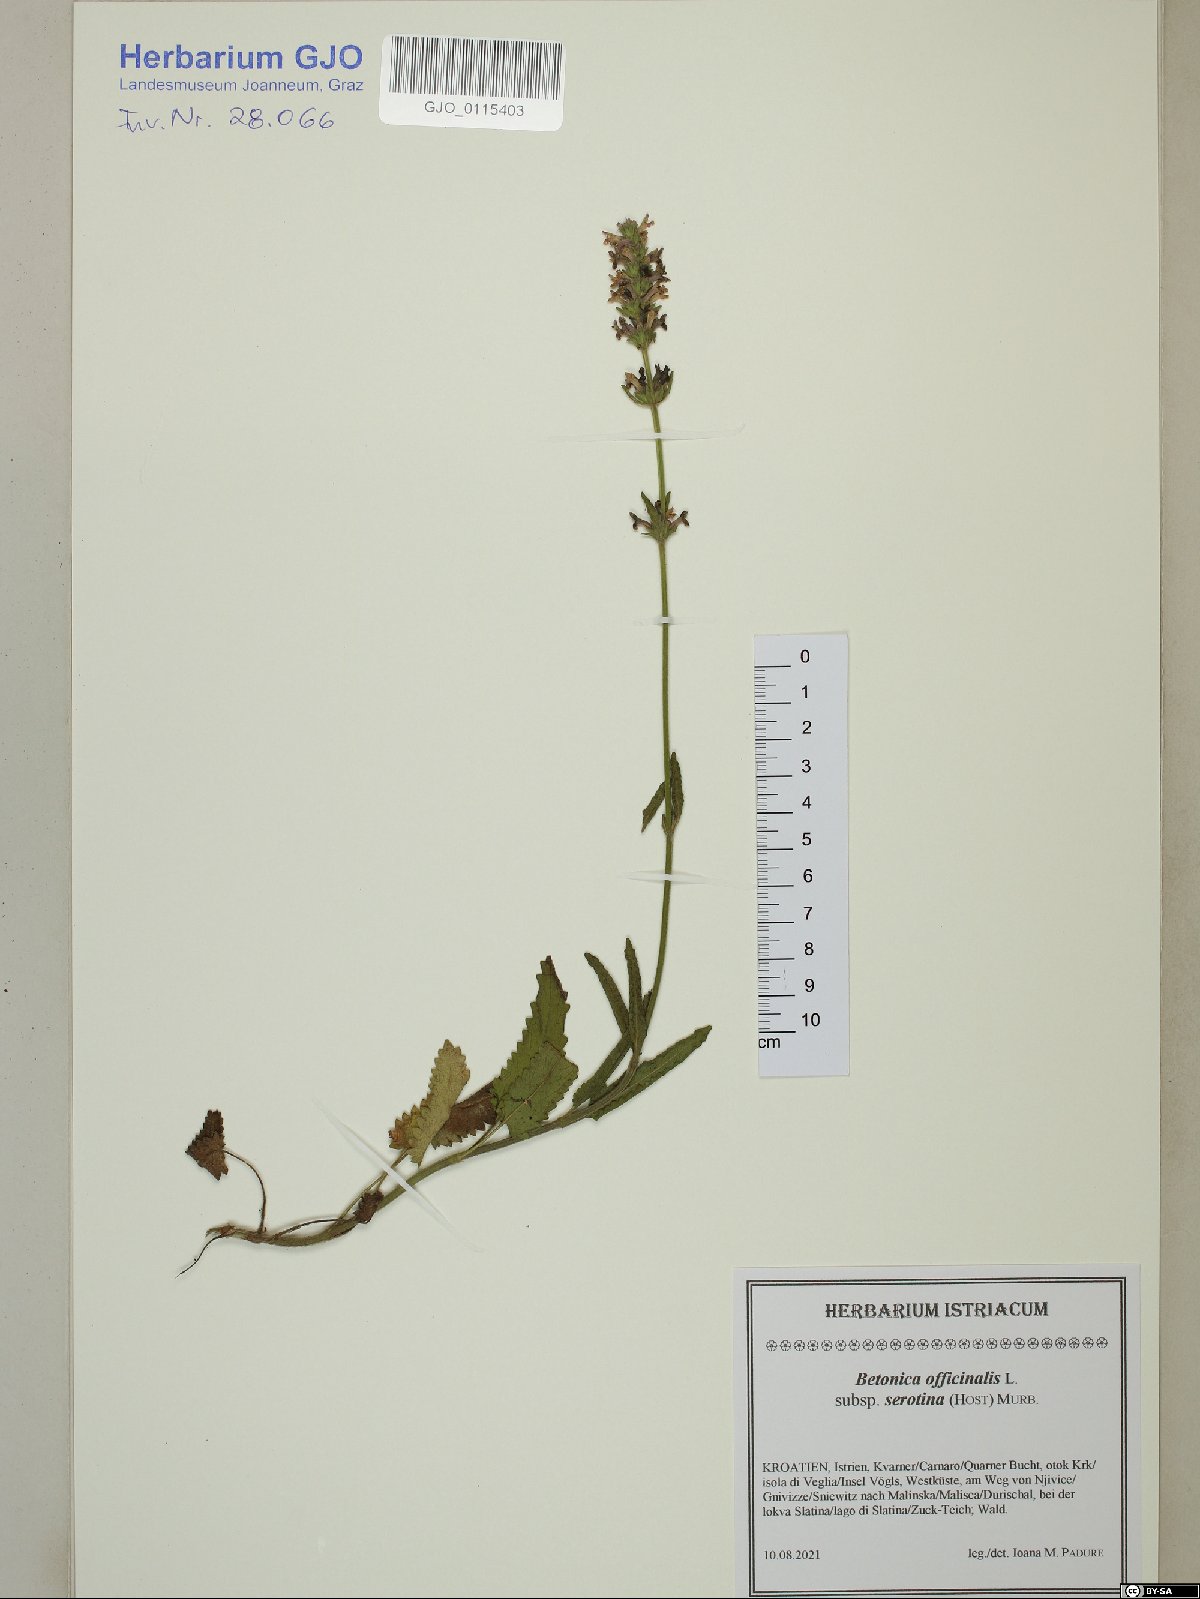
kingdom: Plantae
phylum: Tracheophyta
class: Magnoliopsida
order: Lamiales
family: Lamiaceae
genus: Betonica
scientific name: Betonica officinalis
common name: Bishop's-wort
